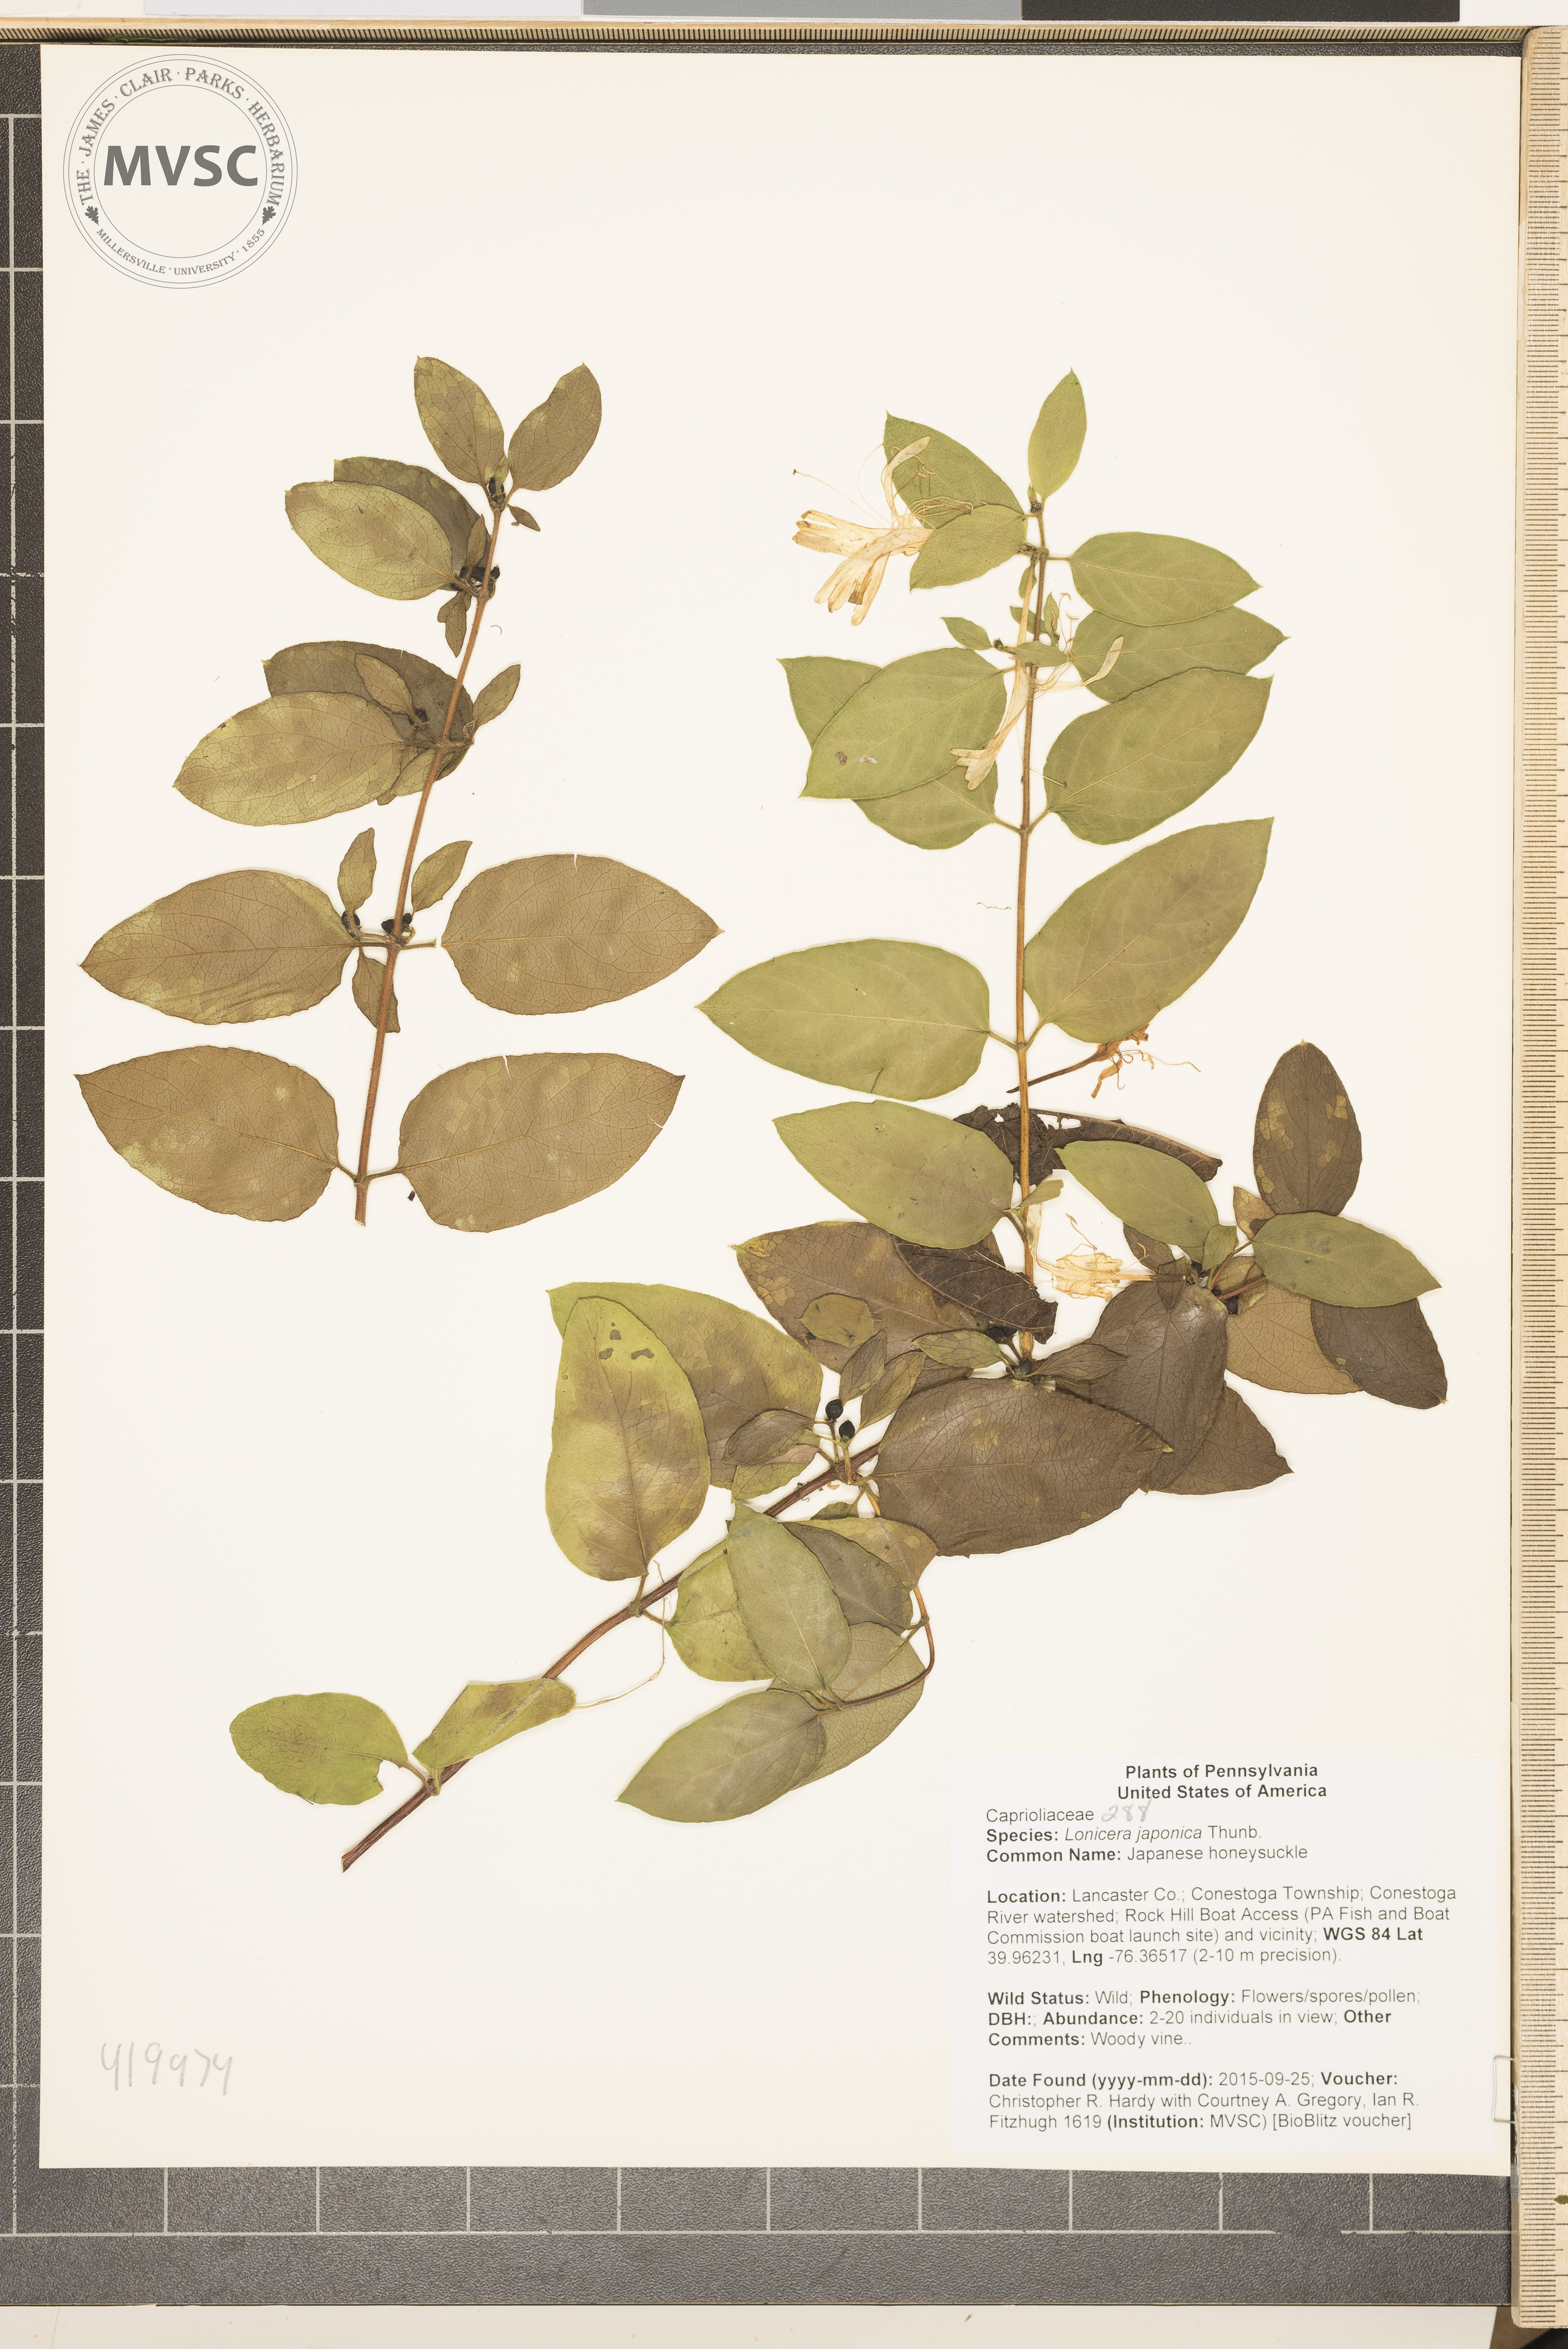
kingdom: Plantae
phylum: Tracheophyta
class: Magnoliopsida
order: Dipsacales
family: Caprifoliaceae
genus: Lonicera
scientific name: Lonicera japonica
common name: Japanese honeysuckle
